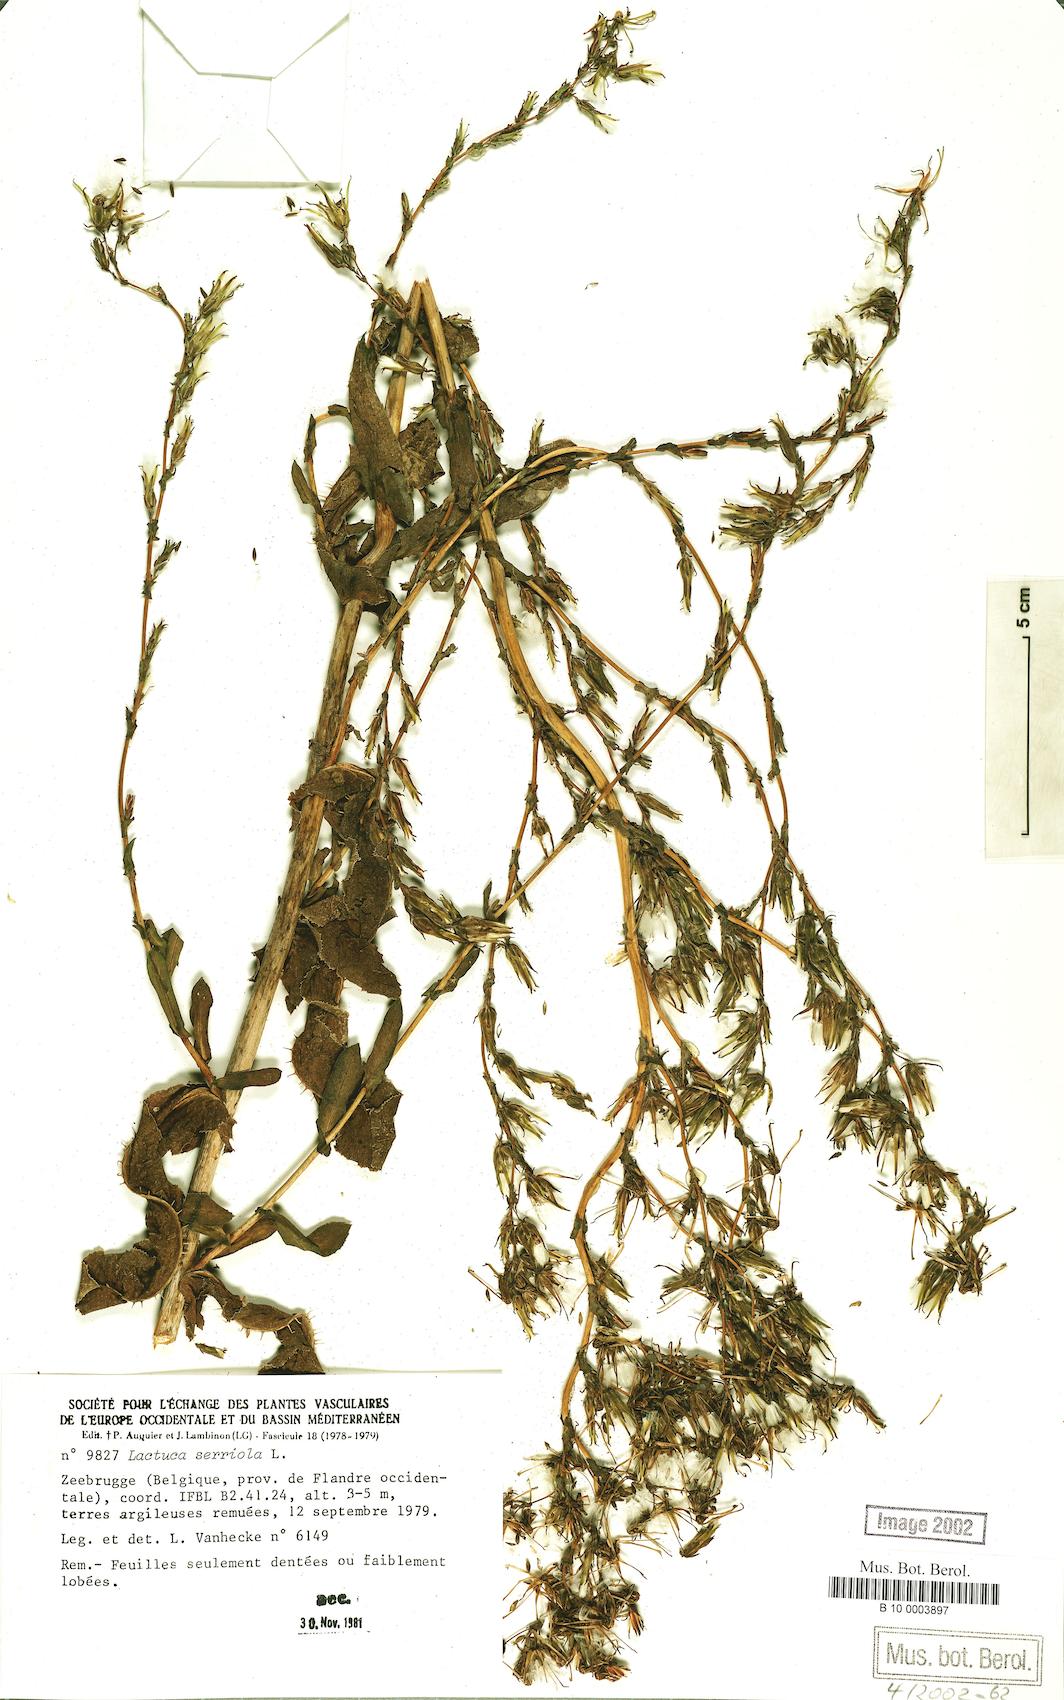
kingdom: Plantae
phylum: Tracheophyta
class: Magnoliopsida
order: Asterales
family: Asteraceae
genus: Lactuca
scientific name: Lactuca serriola
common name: Prickly lettuce
